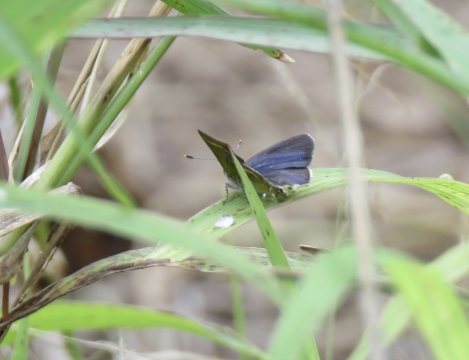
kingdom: Animalia
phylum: Arthropoda
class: Insecta
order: Lepidoptera
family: Lycaenidae
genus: Chlorostrymon
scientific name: Chlorostrymon simaethis
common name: Silver-banded Hairstreak
